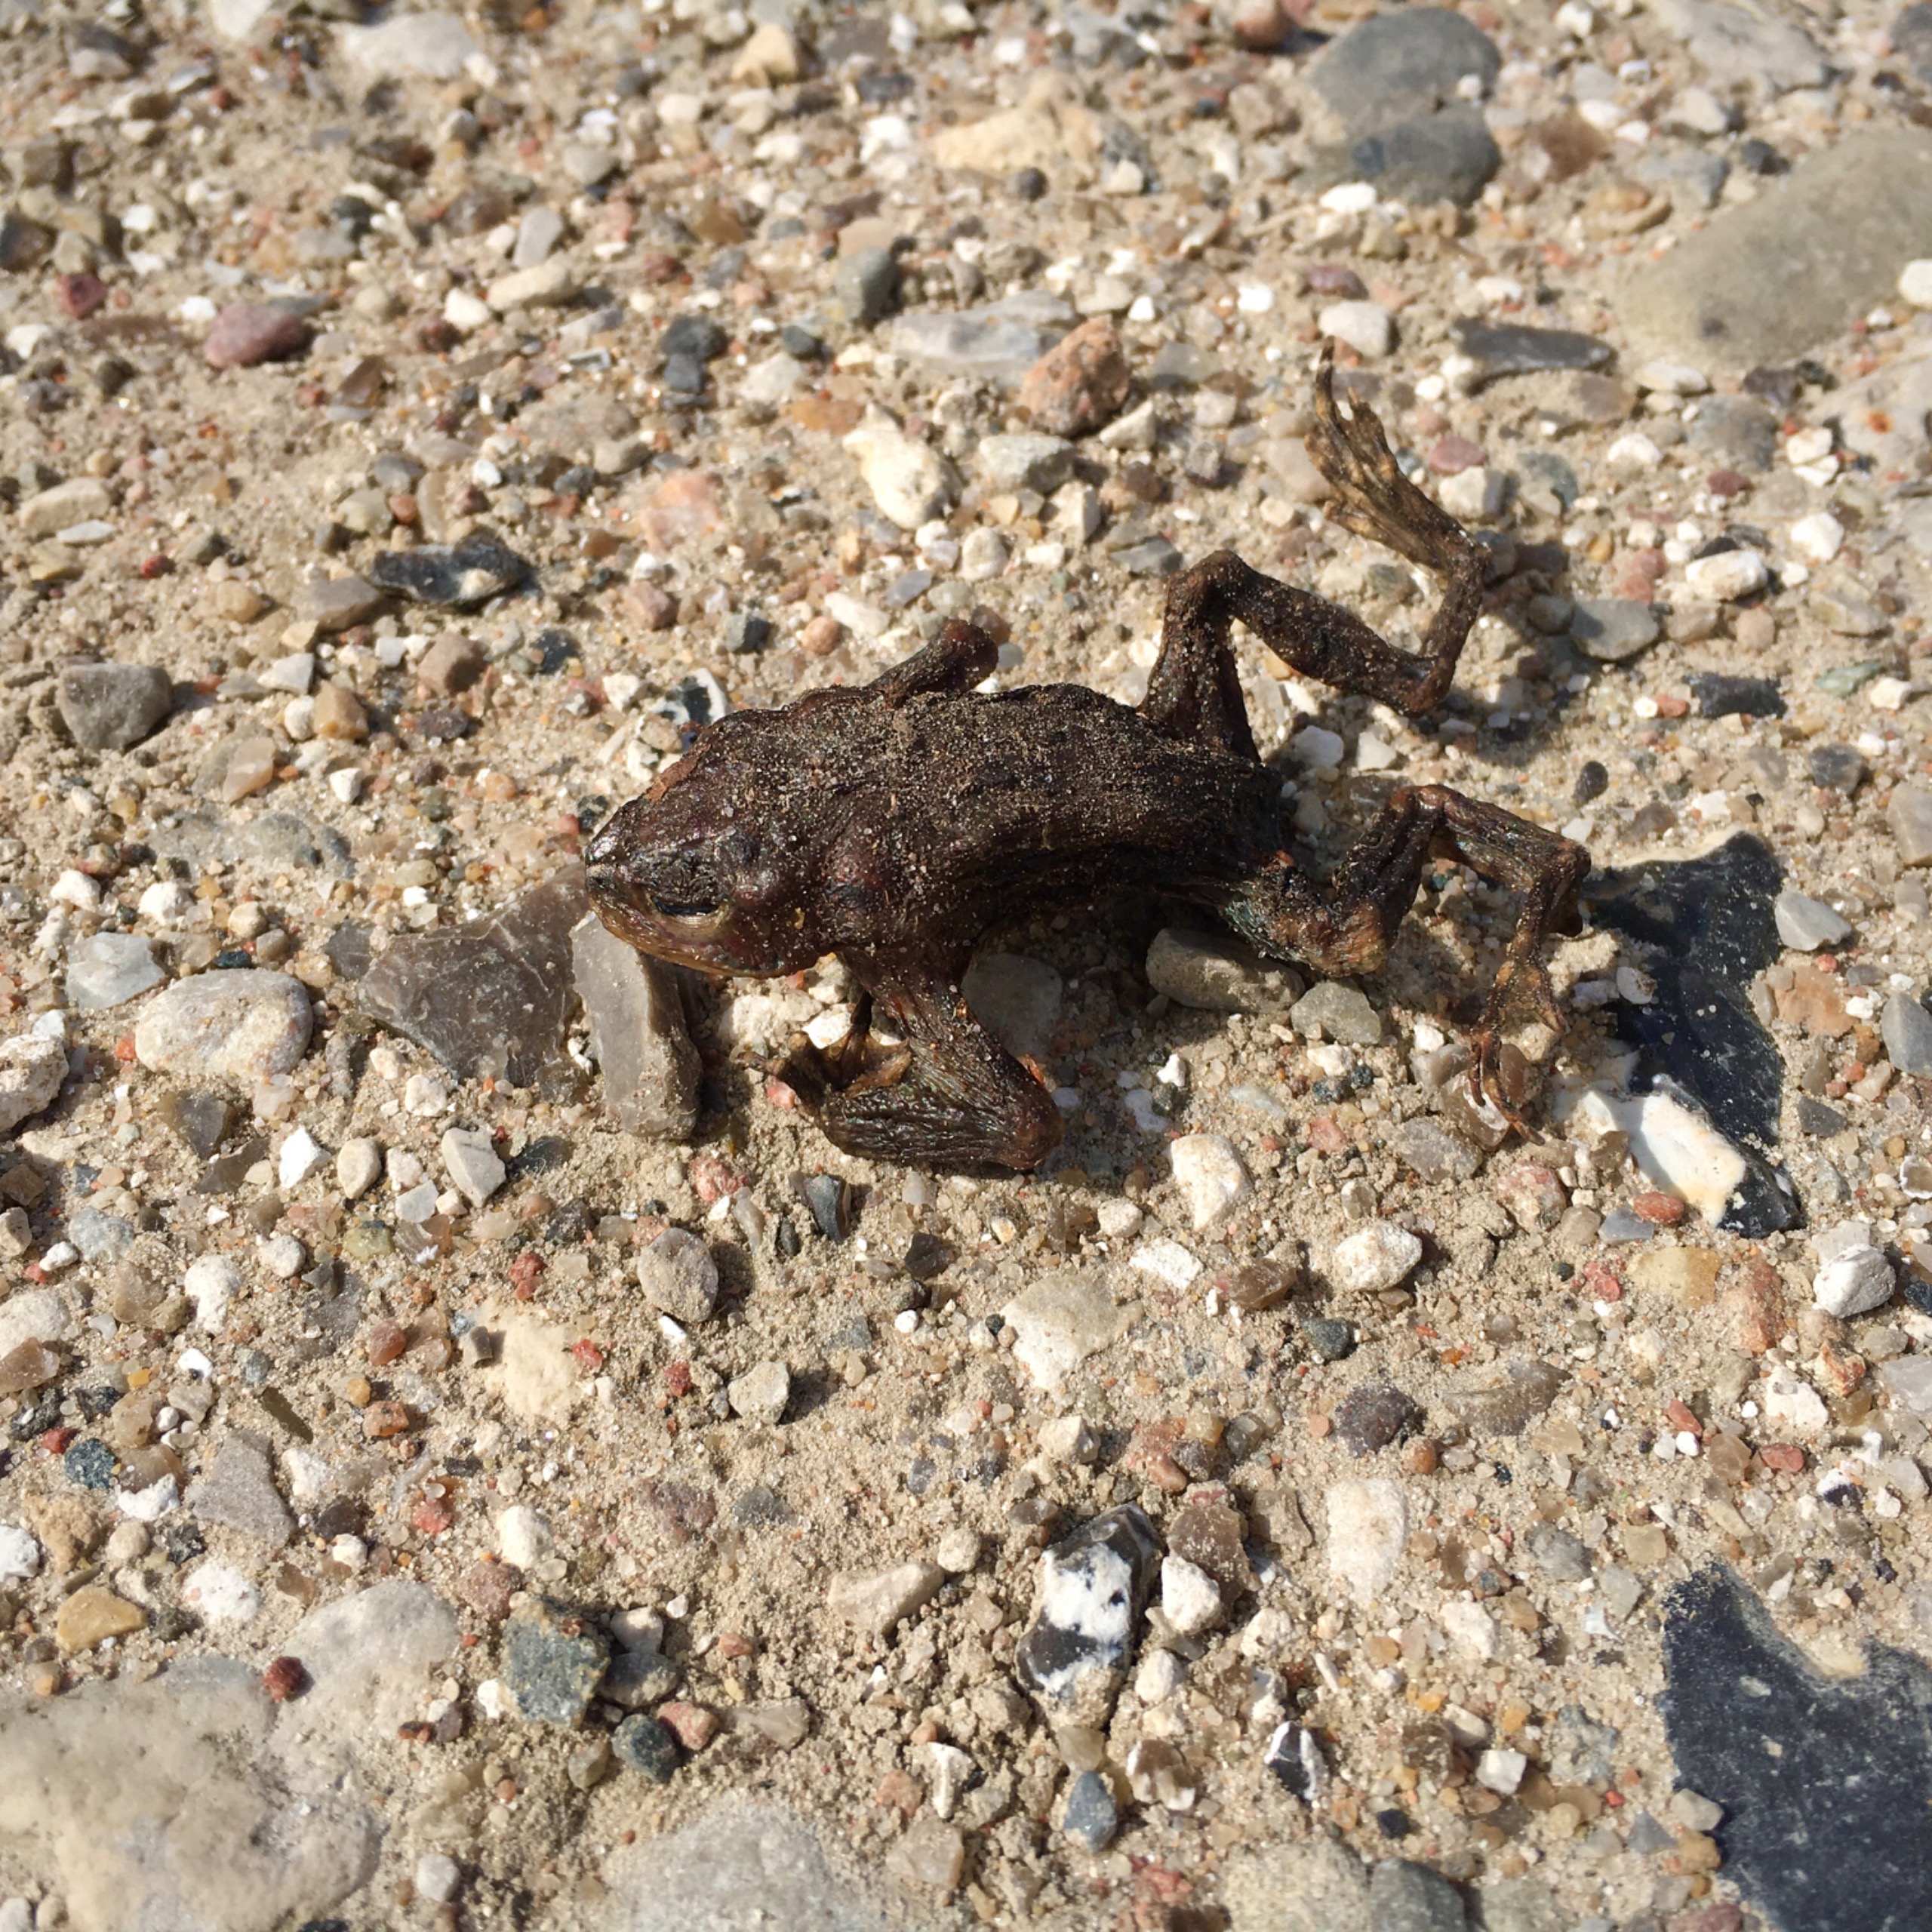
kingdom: Animalia
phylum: Chordata
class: Amphibia
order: Anura
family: Bufonidae
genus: Bufo
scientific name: Bufo bufo
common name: Skrubtudse
